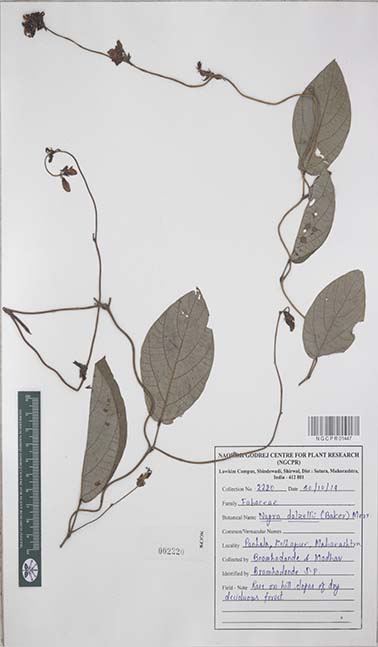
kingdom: Plantae
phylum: Tracheophyta
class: Magnoliopsida
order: Fabales
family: Fabaceae
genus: Nogra
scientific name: Nogra dalzellii
